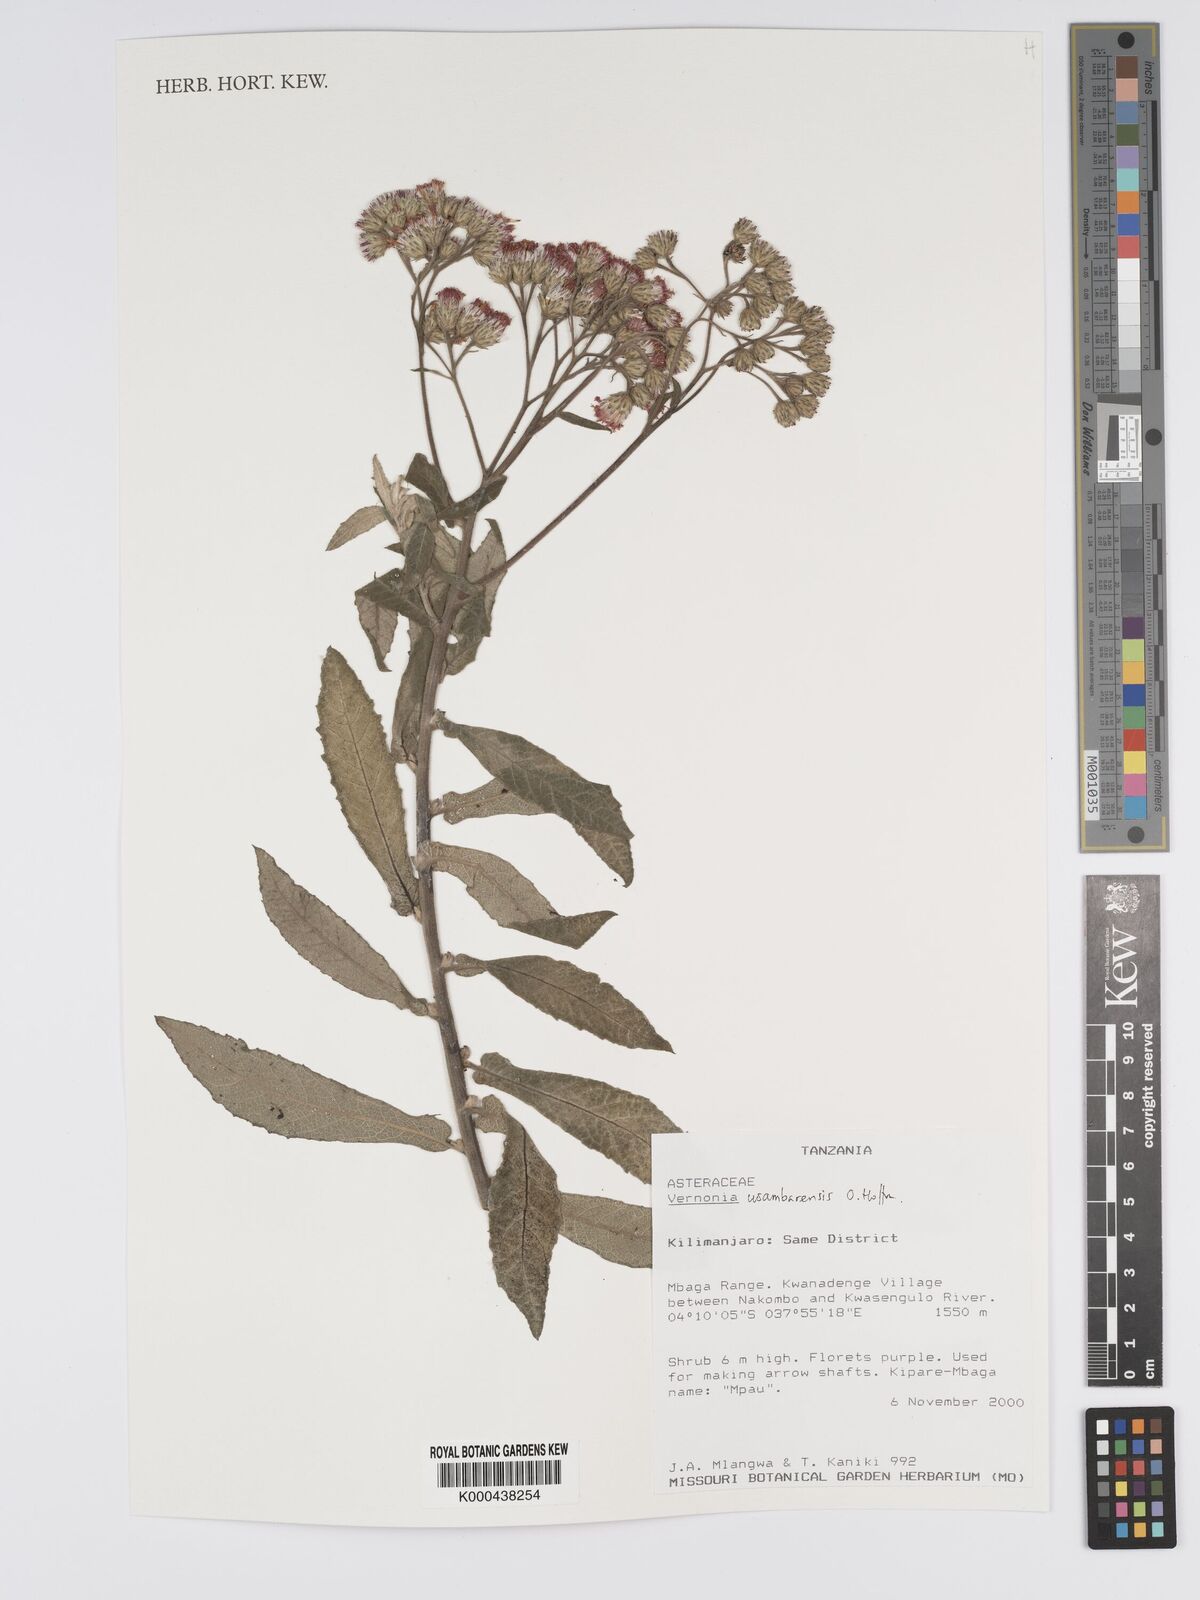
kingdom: Plantae
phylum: Tracheophyta
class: Magnoliopsida
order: Asterales
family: Asteraceae
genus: Jeffreycia
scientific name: Jeffreycia usambarensis
